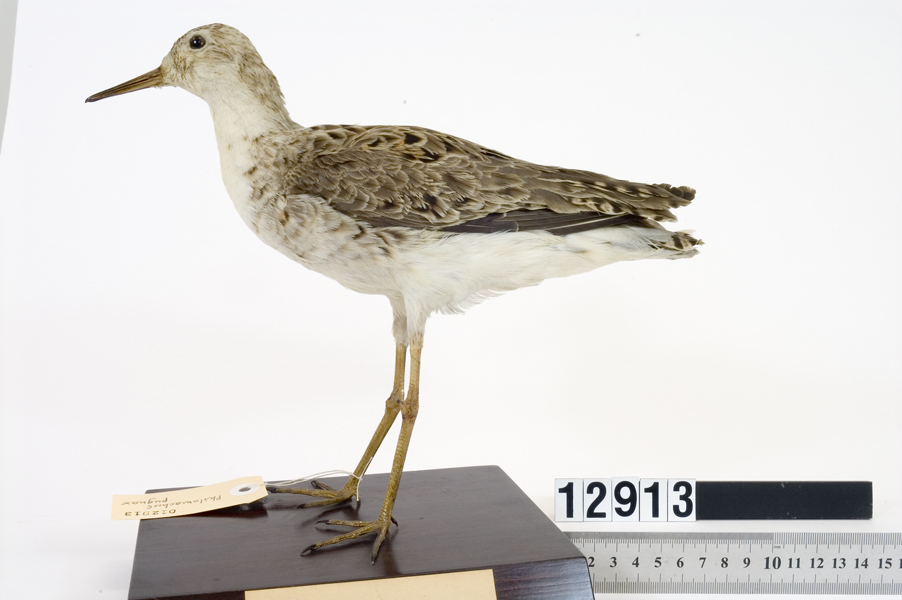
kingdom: Animalia
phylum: Chordata
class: Aves
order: Charadriiformes
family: Scolopacidae
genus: Calidris
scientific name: Calidris pugnax
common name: Ruff
